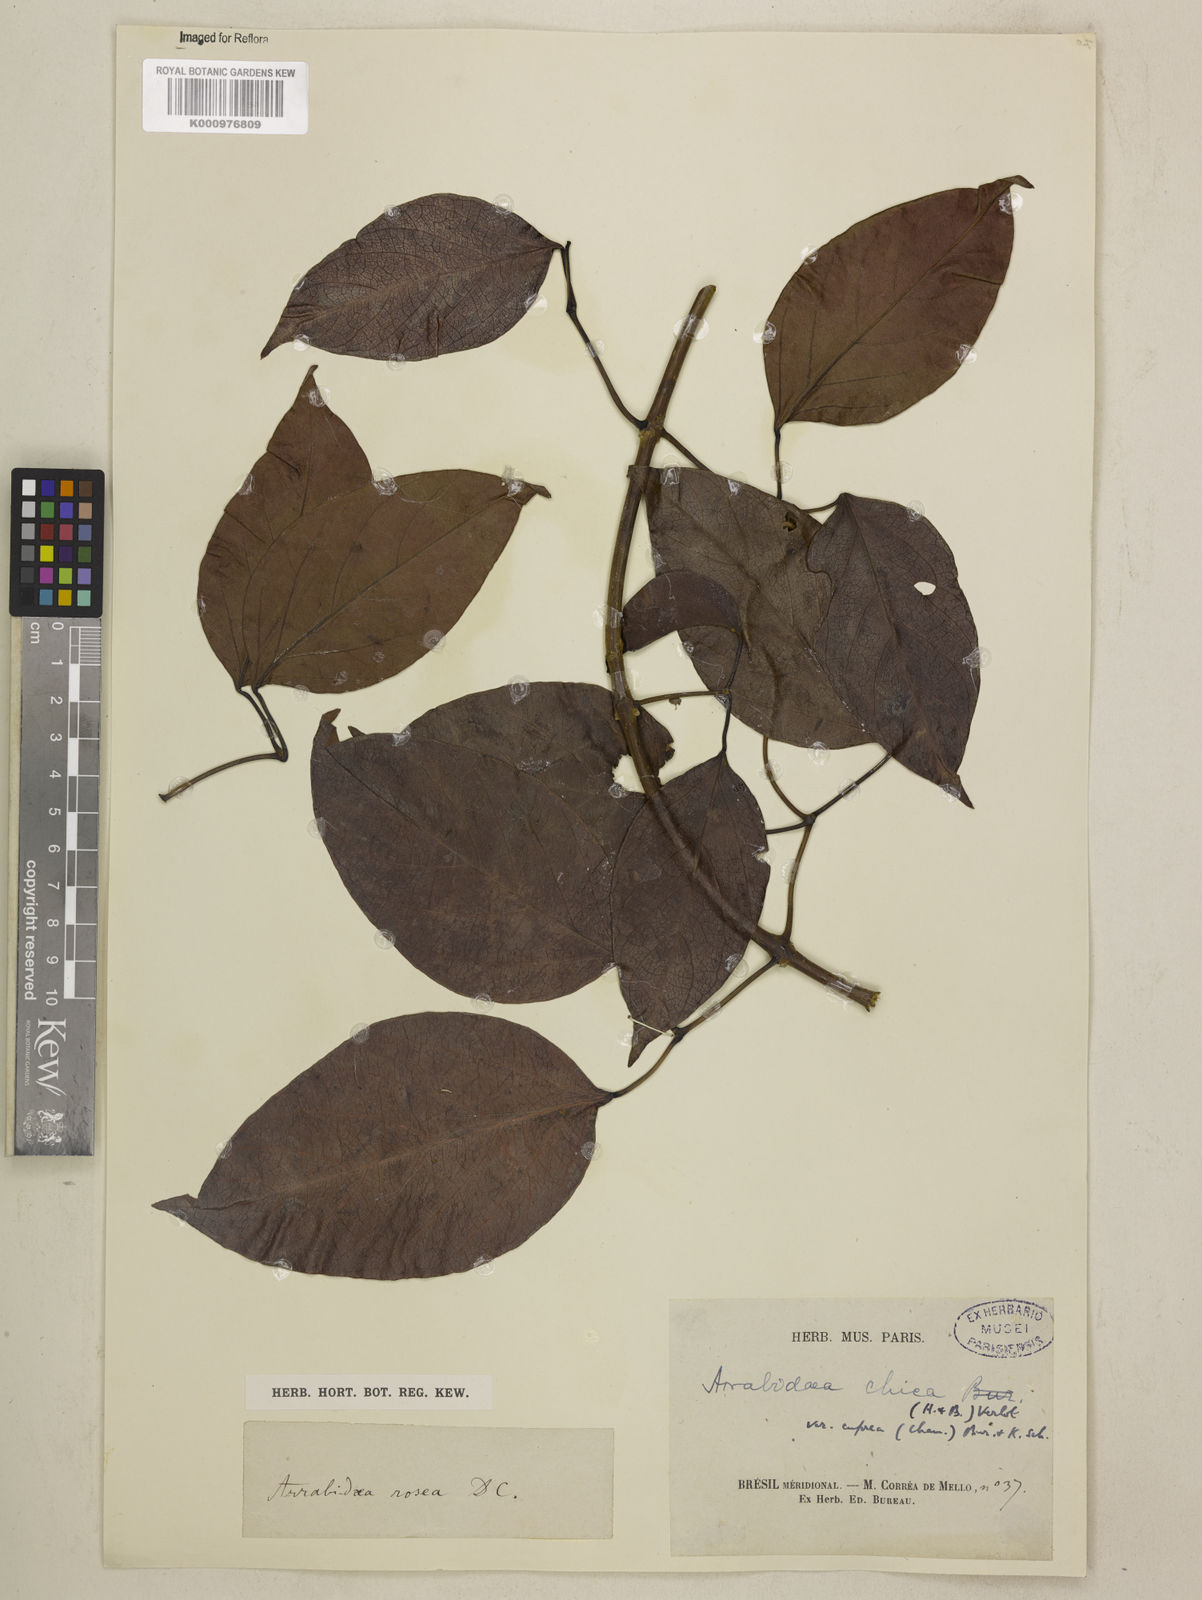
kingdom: Plantae
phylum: Tracheophyta
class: Magnoliopsida
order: Lamiales
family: Bignoniaceae
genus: Fridericia
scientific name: Fridericia chica
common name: Cricketvine
